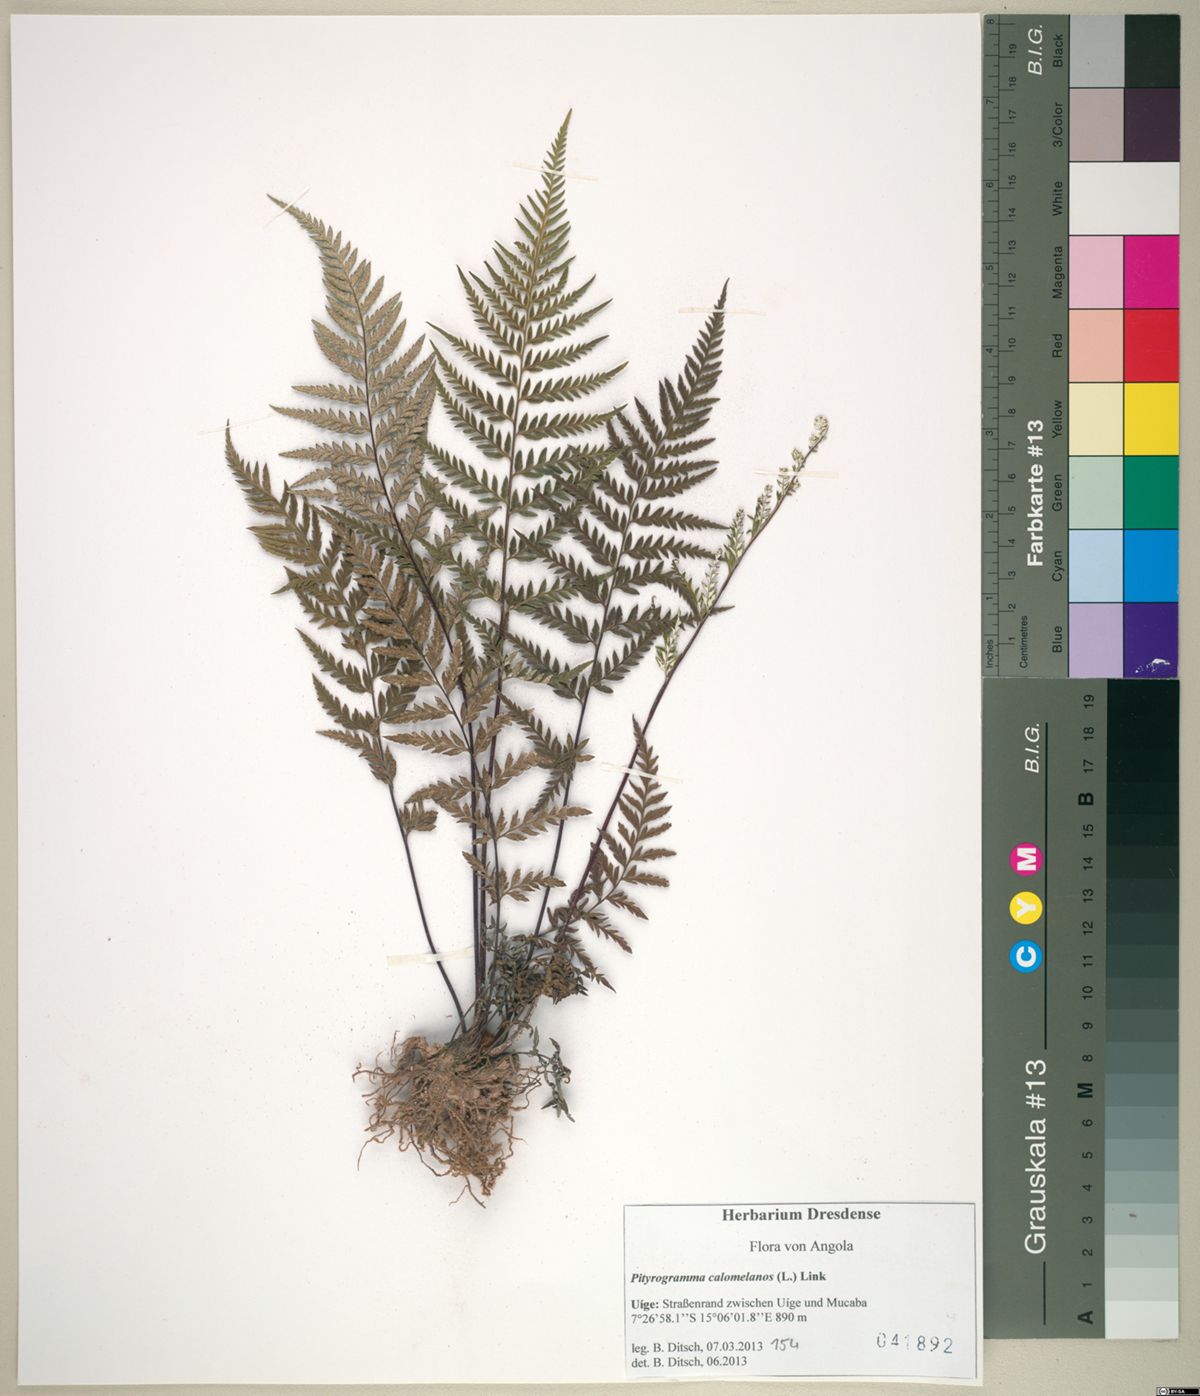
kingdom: Plantae
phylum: Tracheophyta
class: Polypodiopsida
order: Polypodiales
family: Pteridaceae
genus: Pityrogramma
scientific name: Pityrogramma calomelanos
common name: Dixie silverback fern
